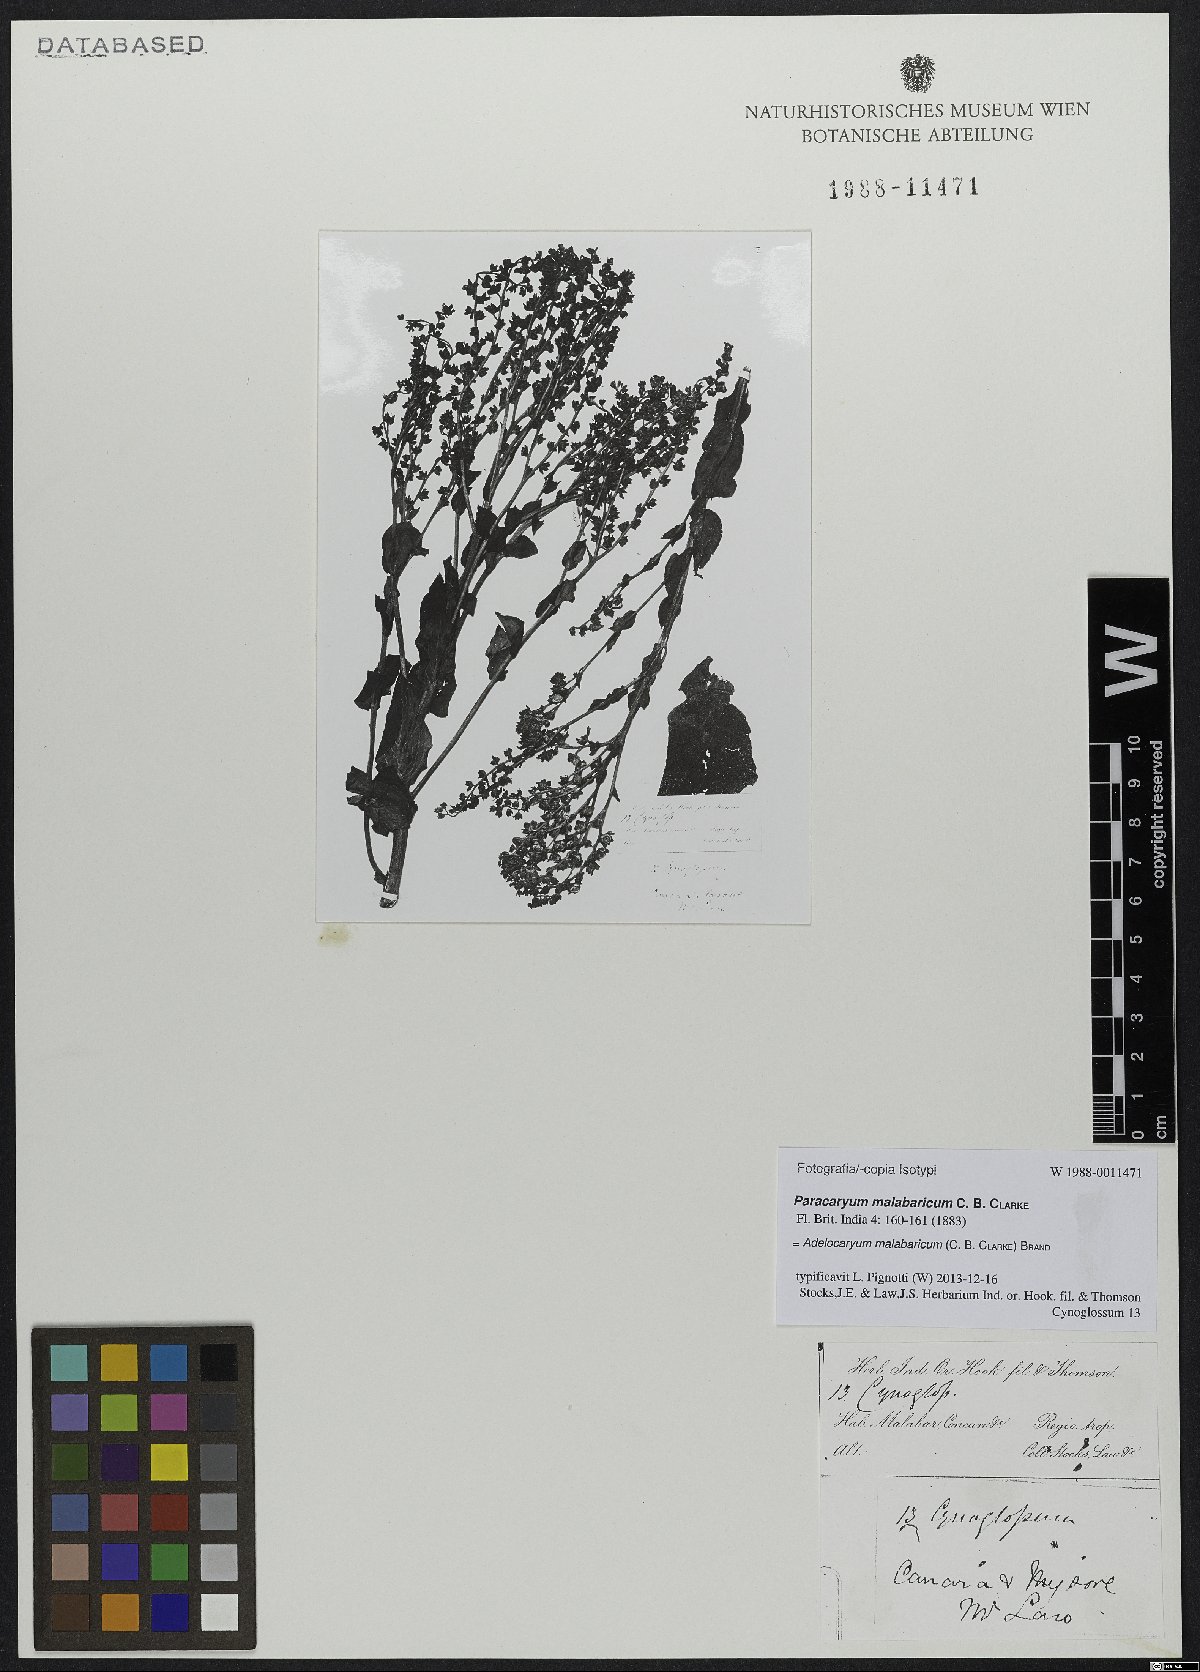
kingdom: Plantae
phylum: Tracheophyta
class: Magnoliopsida
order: Boraginales
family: Boraginaceae
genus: Paracaryum
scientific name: Paracaryum malabaricum
